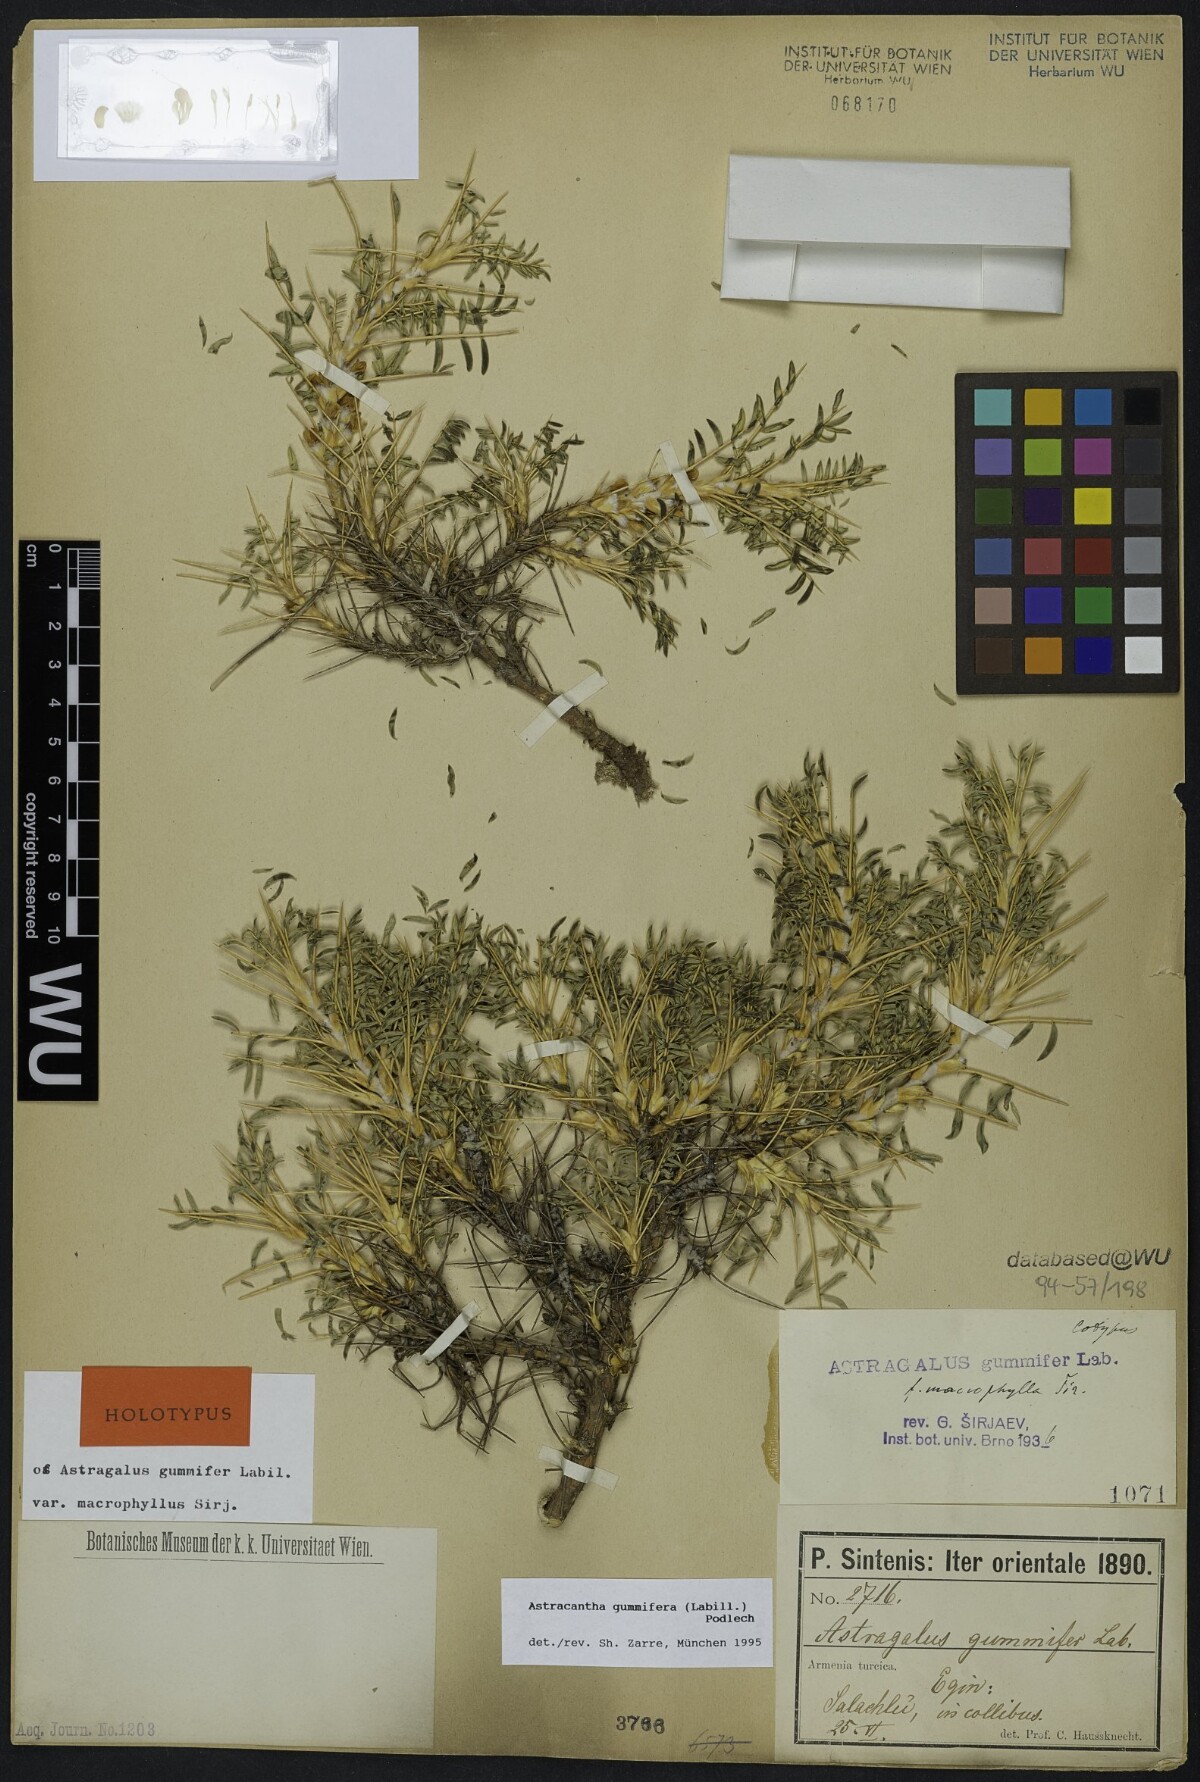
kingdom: Plantae
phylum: Tracheophyta
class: Magnoliopsida
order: Fabales
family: Fabaceae
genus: Astragalus
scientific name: Astragalus gummifer
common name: Tragacanth
